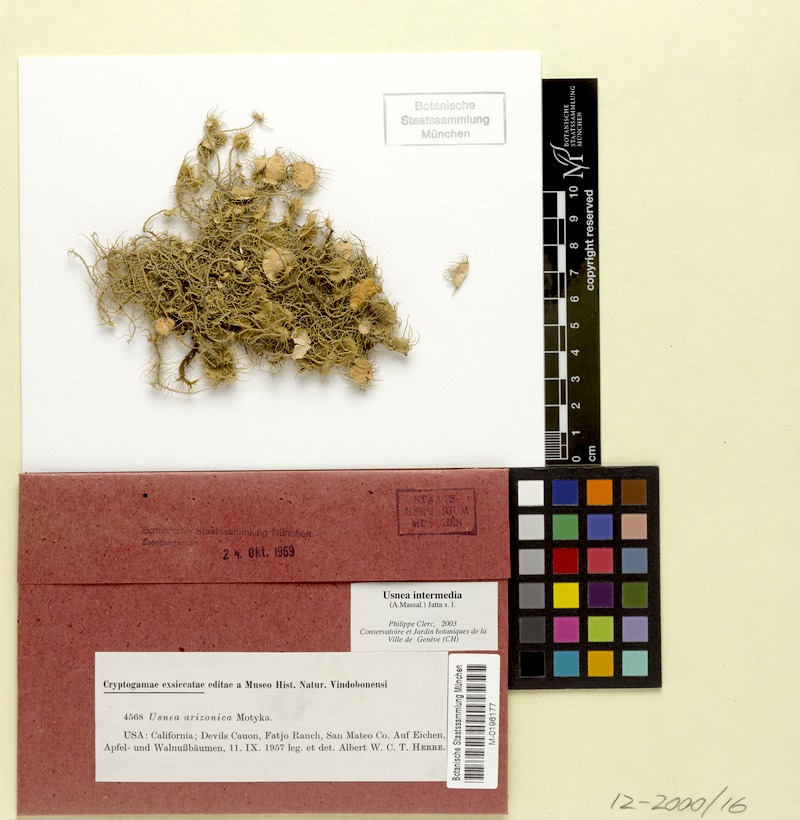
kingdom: Fungi
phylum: Ascomycota
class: Lecanoromycetes
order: Lecanorales
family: Parmeliaceae
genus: Usnea
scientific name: Usnea intermedia
